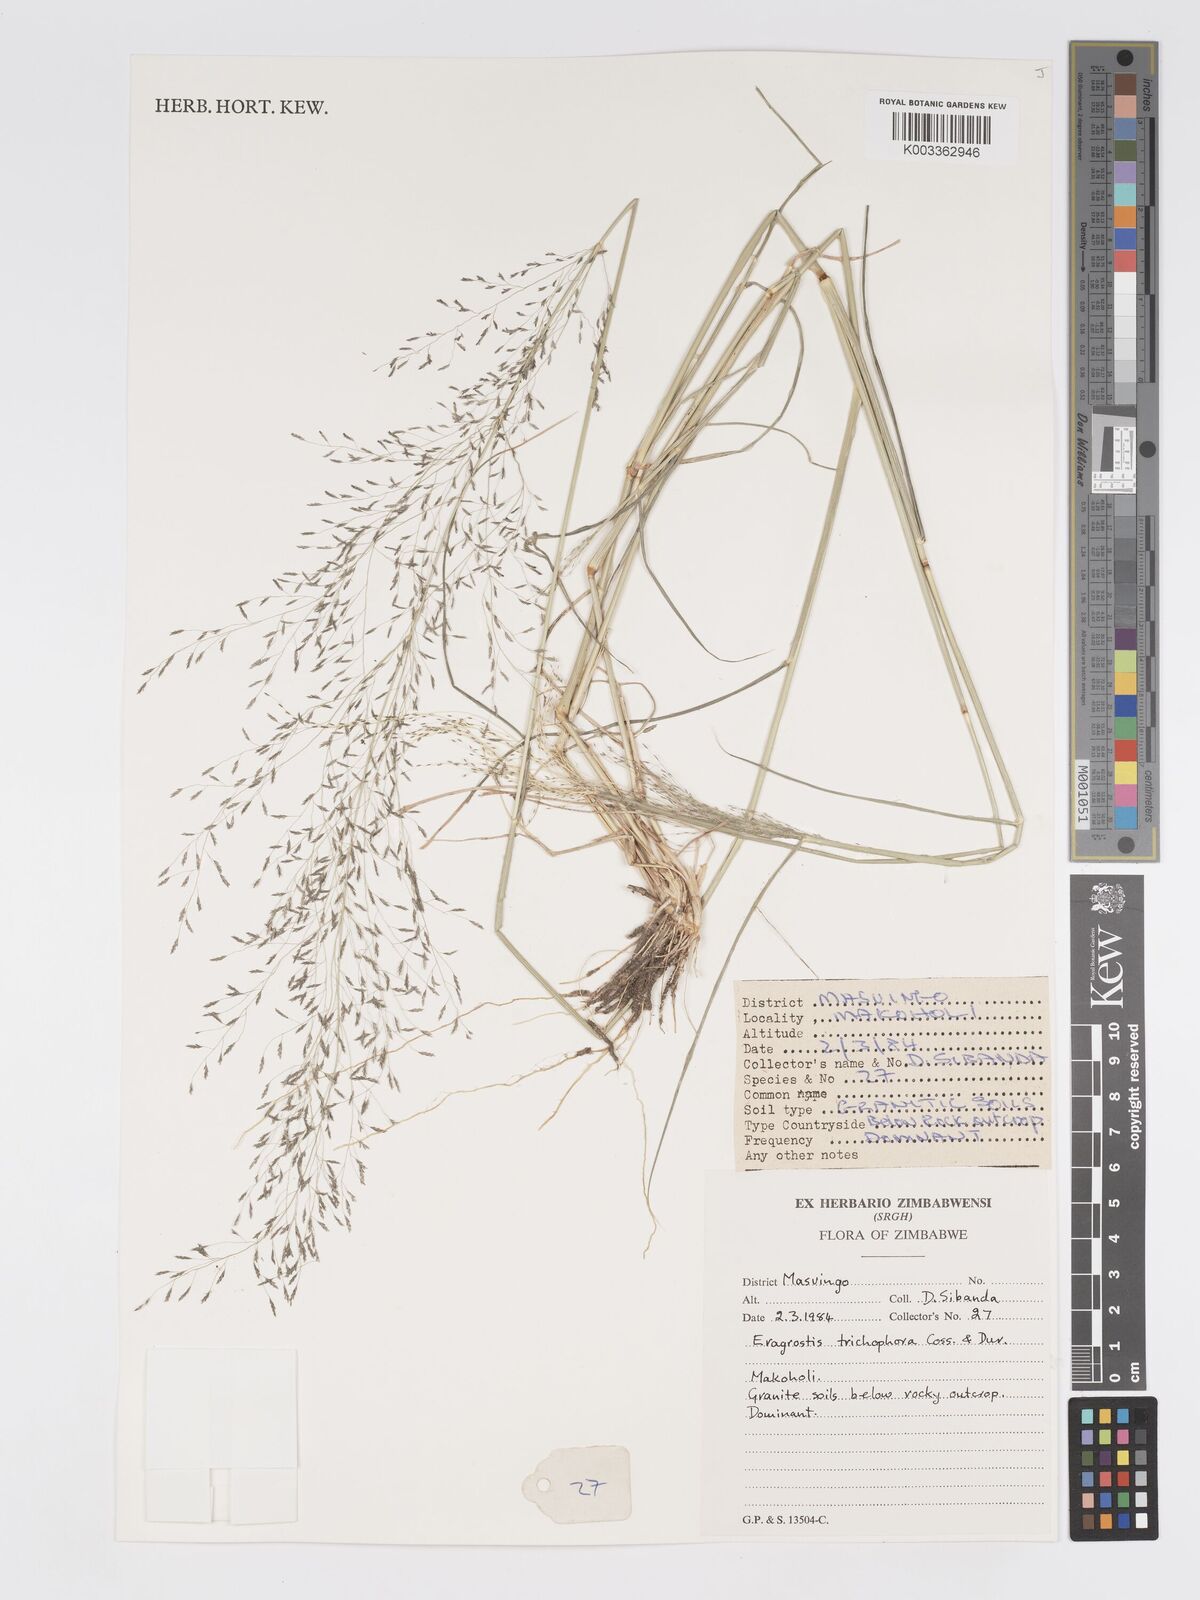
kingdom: Plantae
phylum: Tracheophyta
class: Liliopsida
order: Poales
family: Poaceae
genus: Eragrostis
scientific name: Eragrostis cylindriflora
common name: Cylinderflower lovegrass
